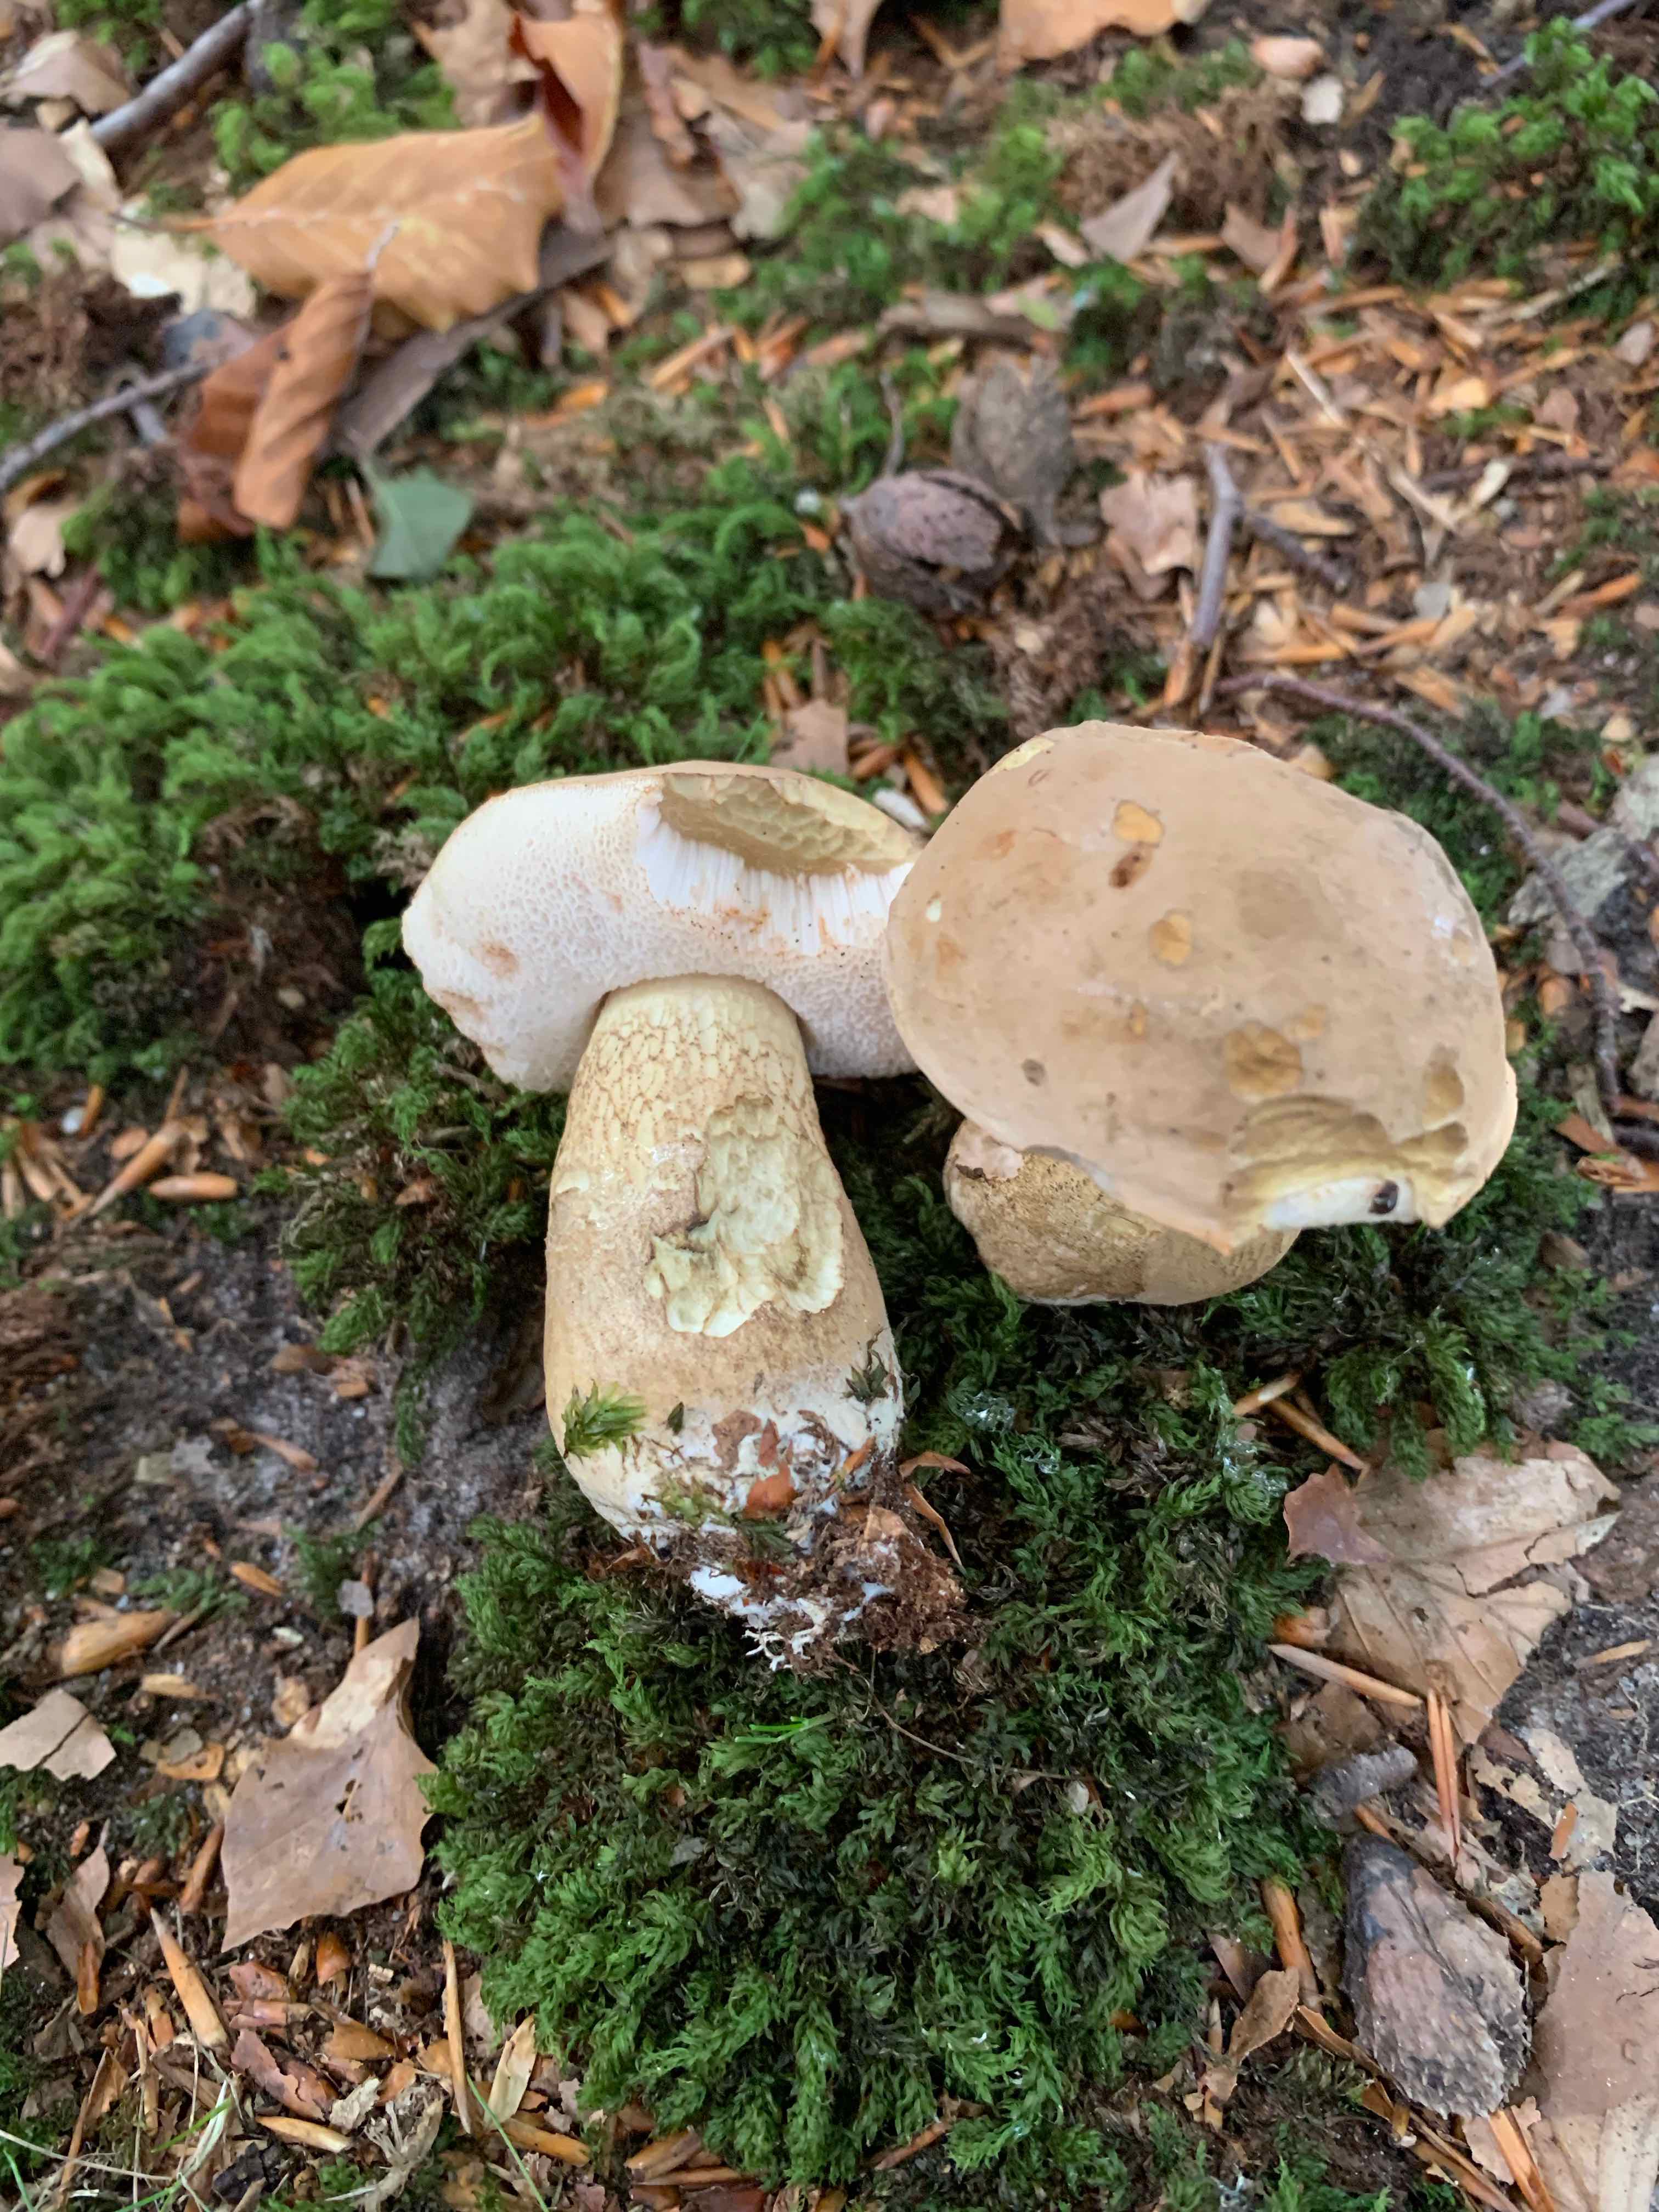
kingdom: Fungi
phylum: Basidiomycota
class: Agaricomycetes
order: Boletales
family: Boletaceae
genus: Tylopilus
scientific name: Tylopilus felleus
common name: galderørhat
